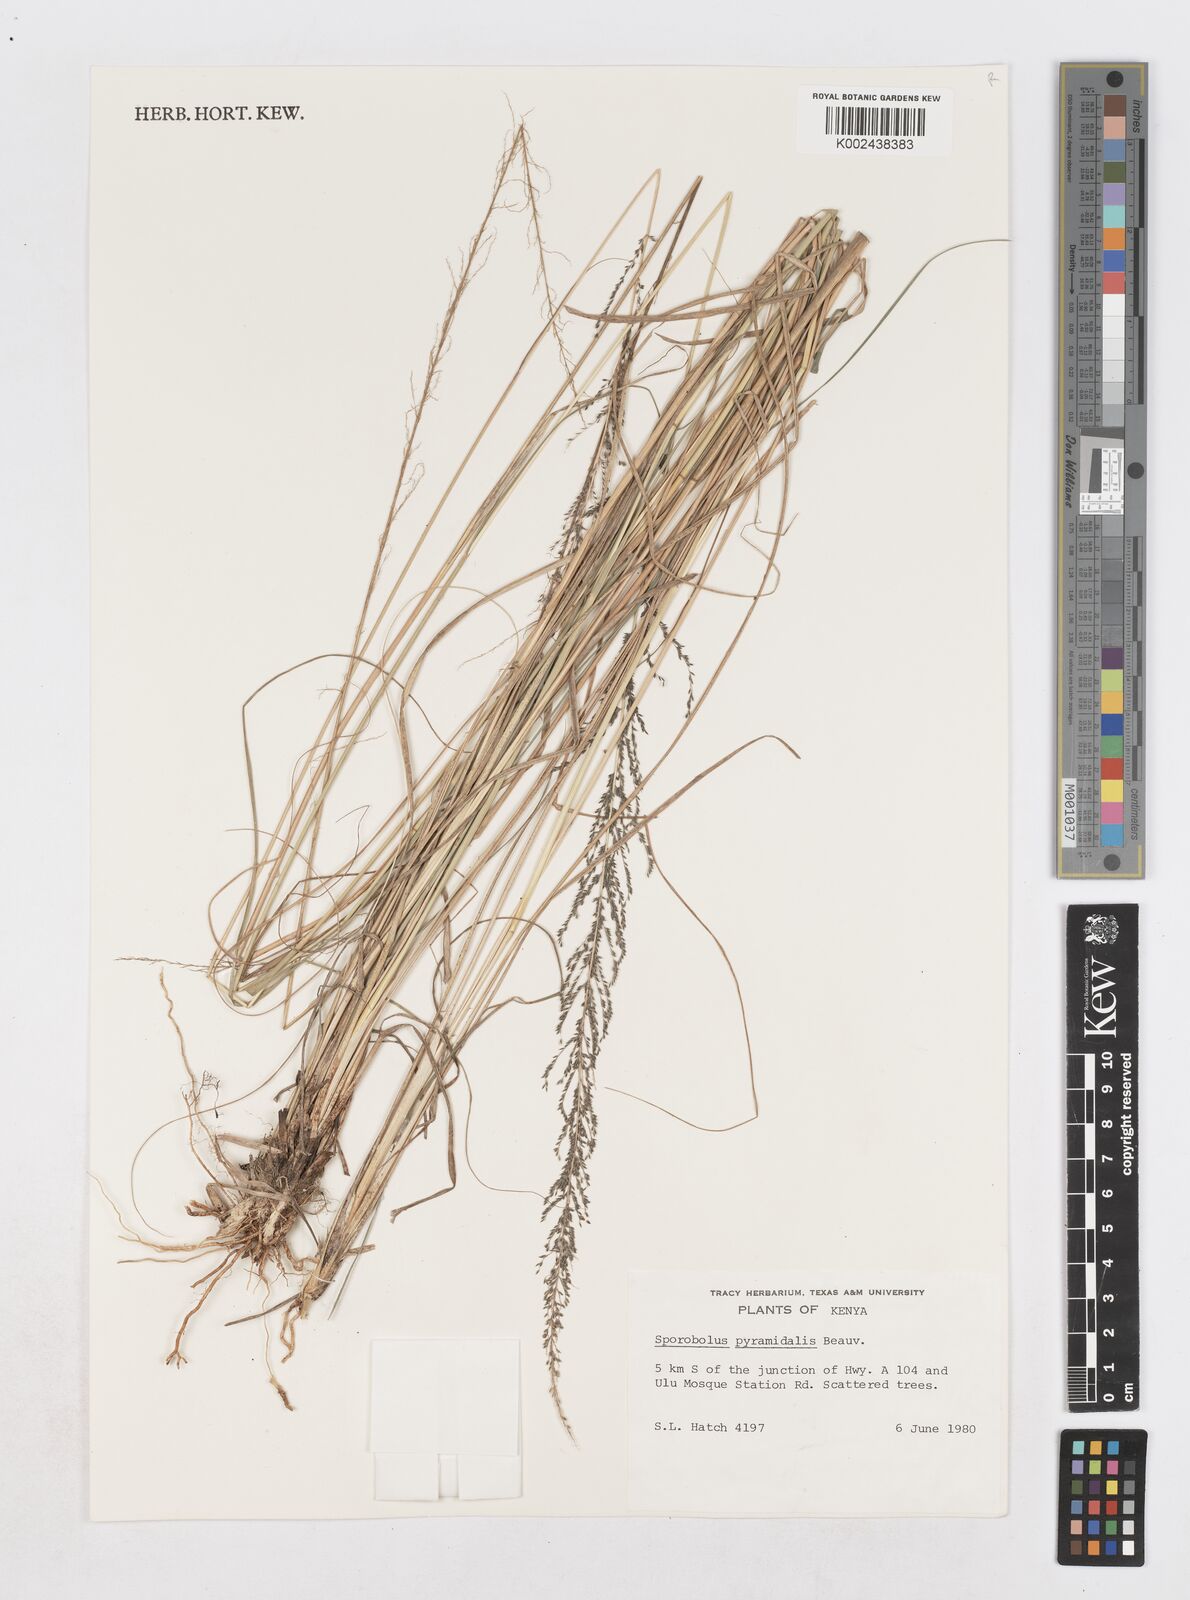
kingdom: Plantae
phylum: Tracheophyta
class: Liliopsida
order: Poales
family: Poaceae
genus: Sporobolus
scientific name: Sporobolus pyramidalis
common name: West indian dropseed
